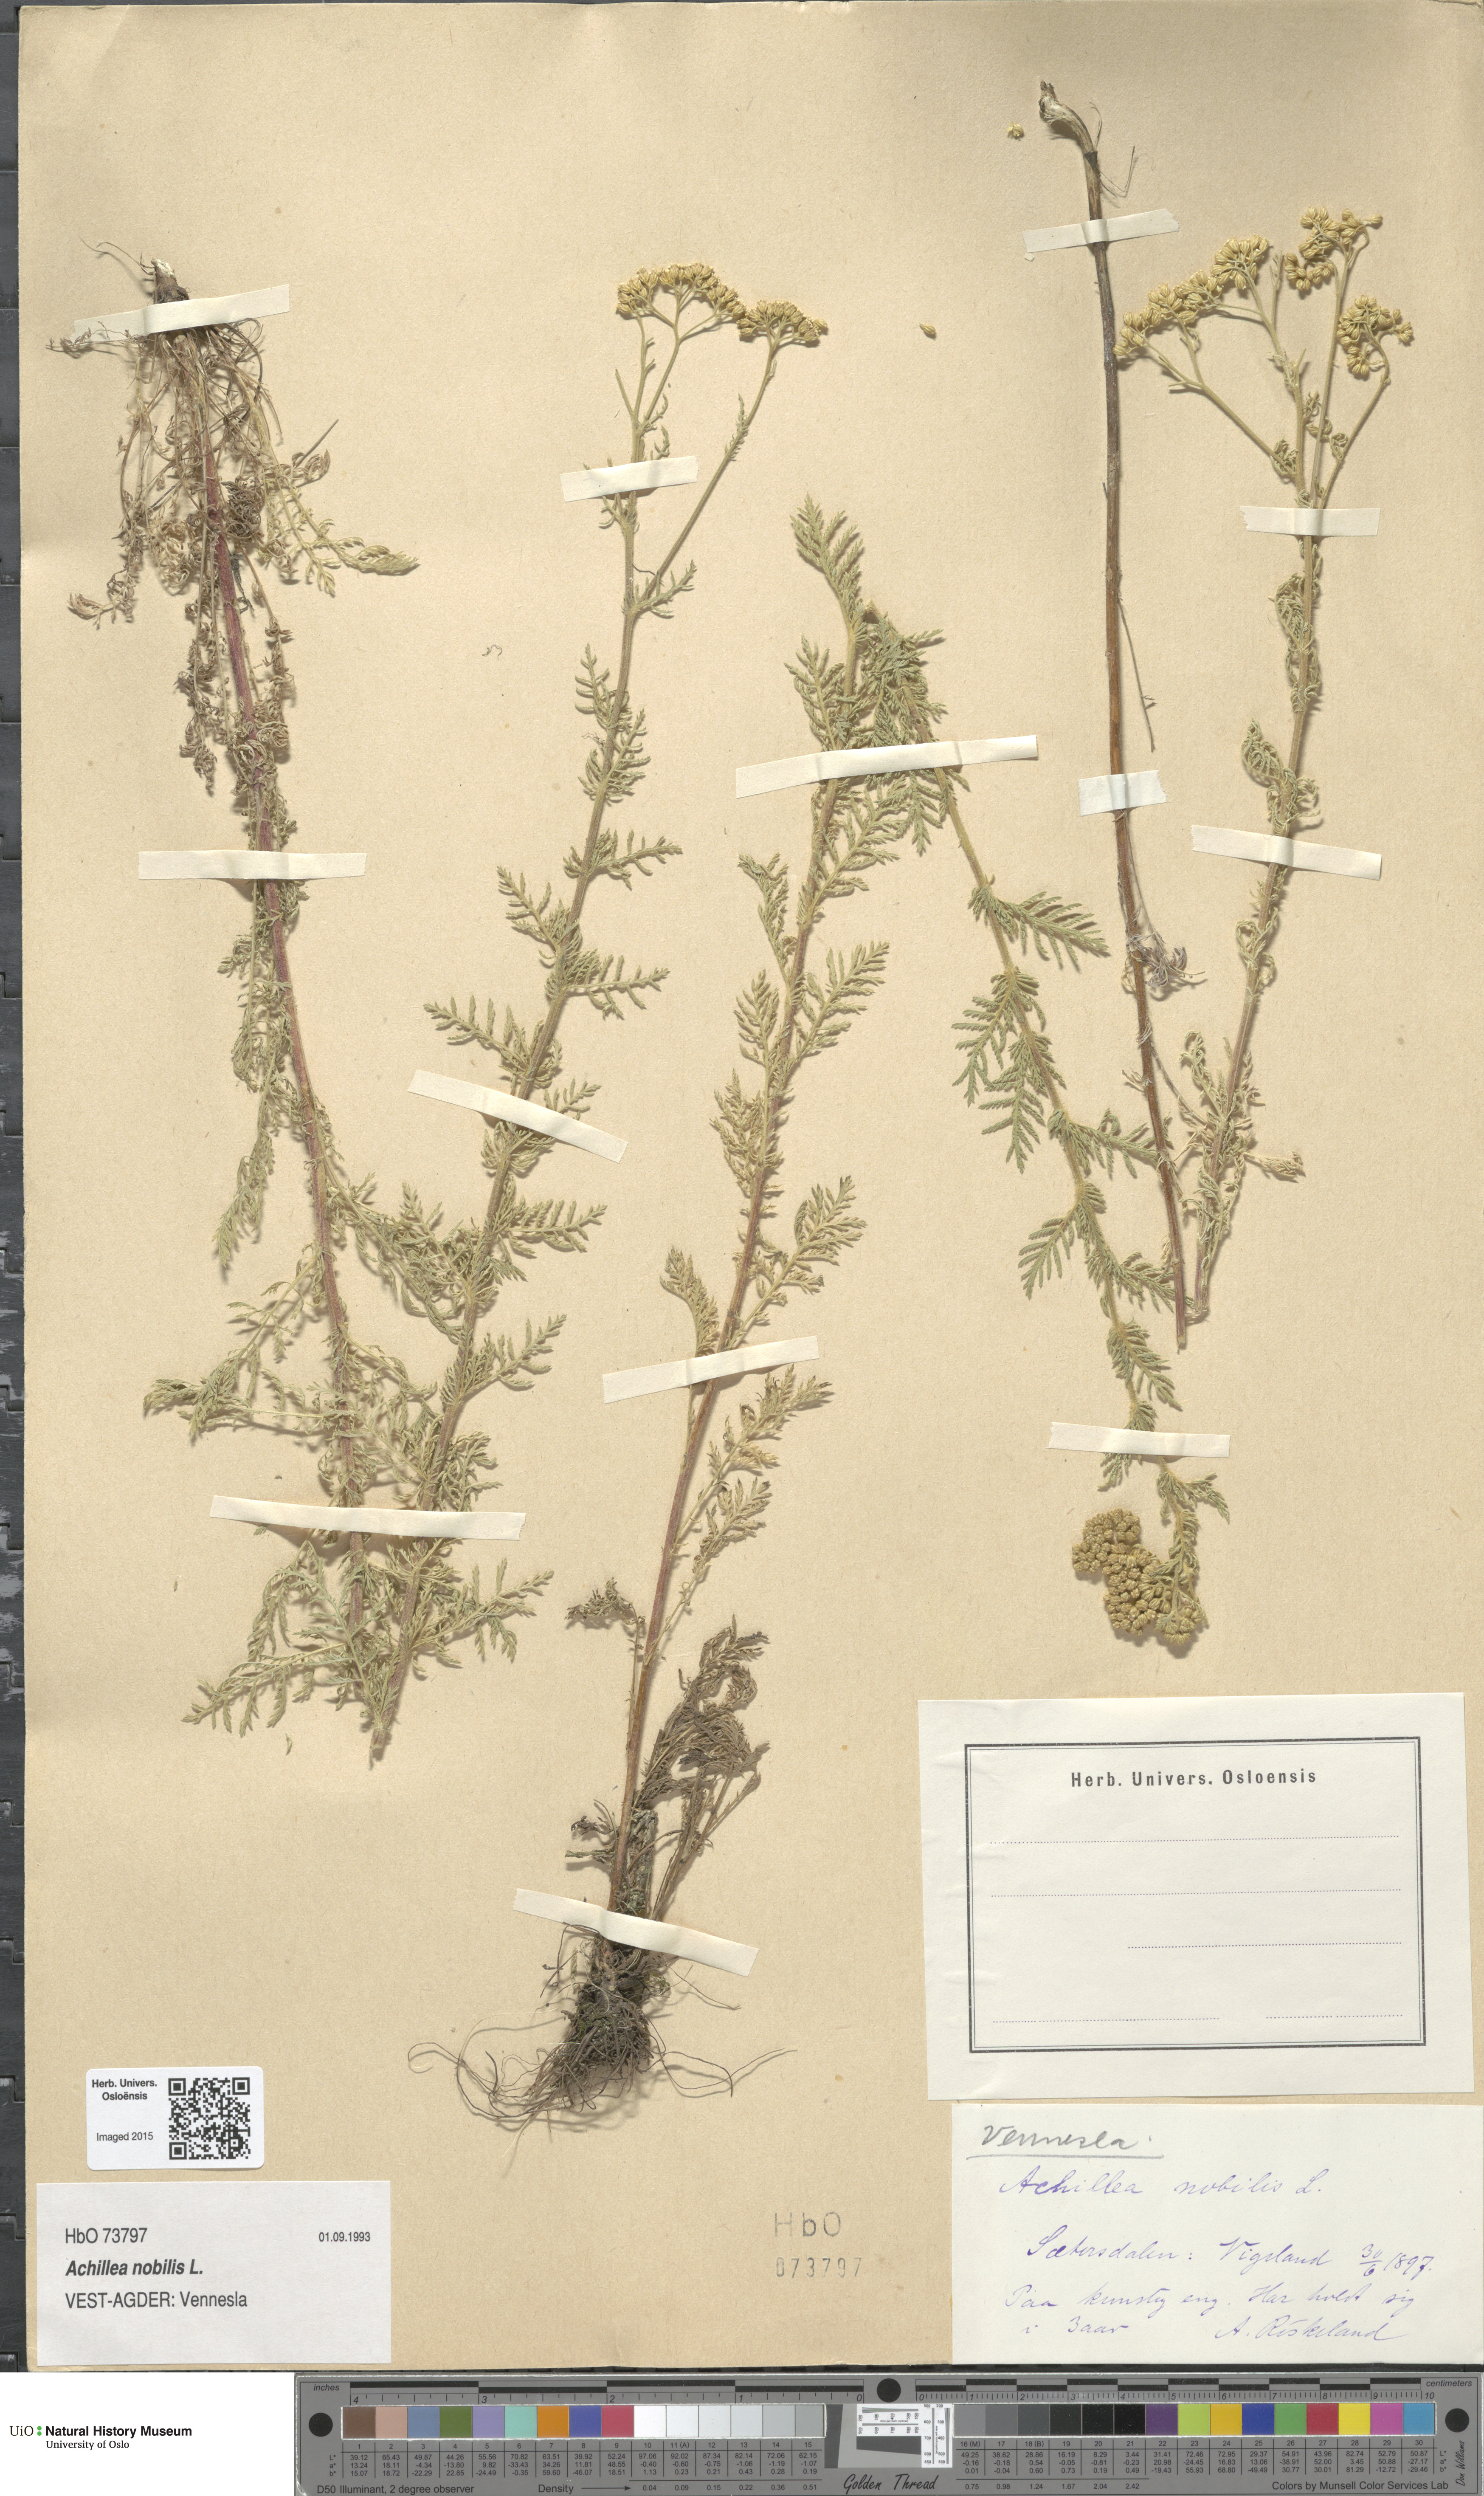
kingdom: Plantae
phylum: Tracheophyta
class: Magnoliopsida
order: Asterales
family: Asteraceae
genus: Achillea
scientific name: Achillea nobilis
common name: Noble yarrow
